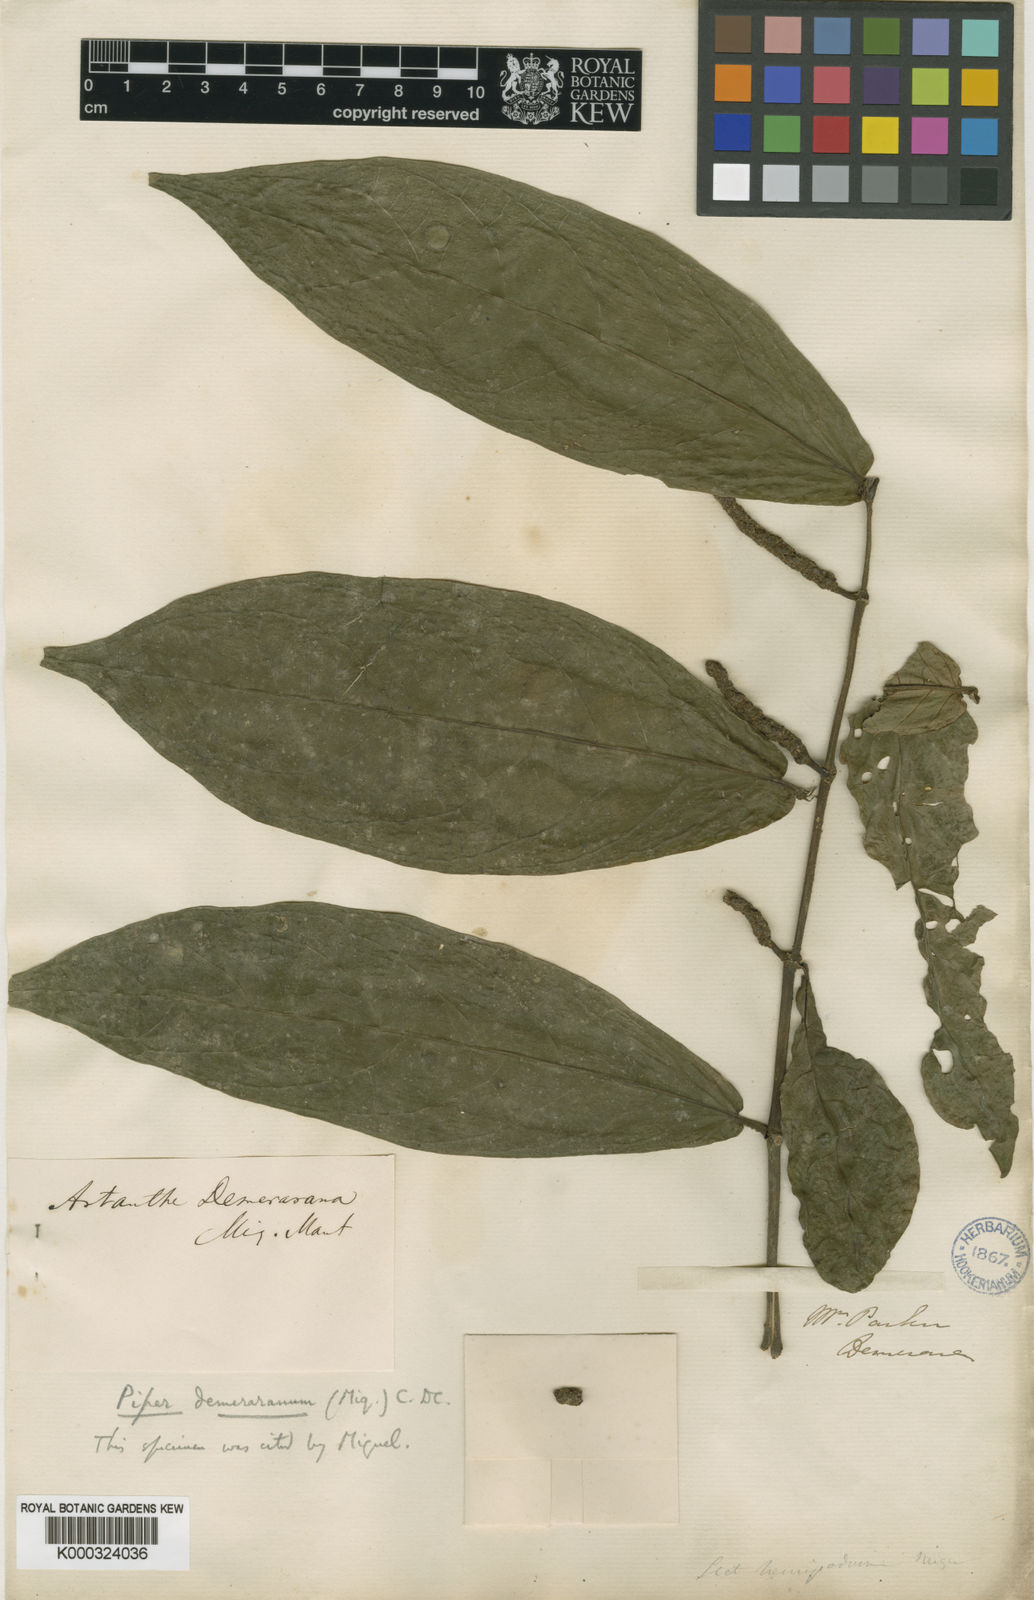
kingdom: Plantae
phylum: Tracheophyta
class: Magnoliopsida
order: Piperales
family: Piperaceae
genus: Piper
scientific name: Piper demeraranum
